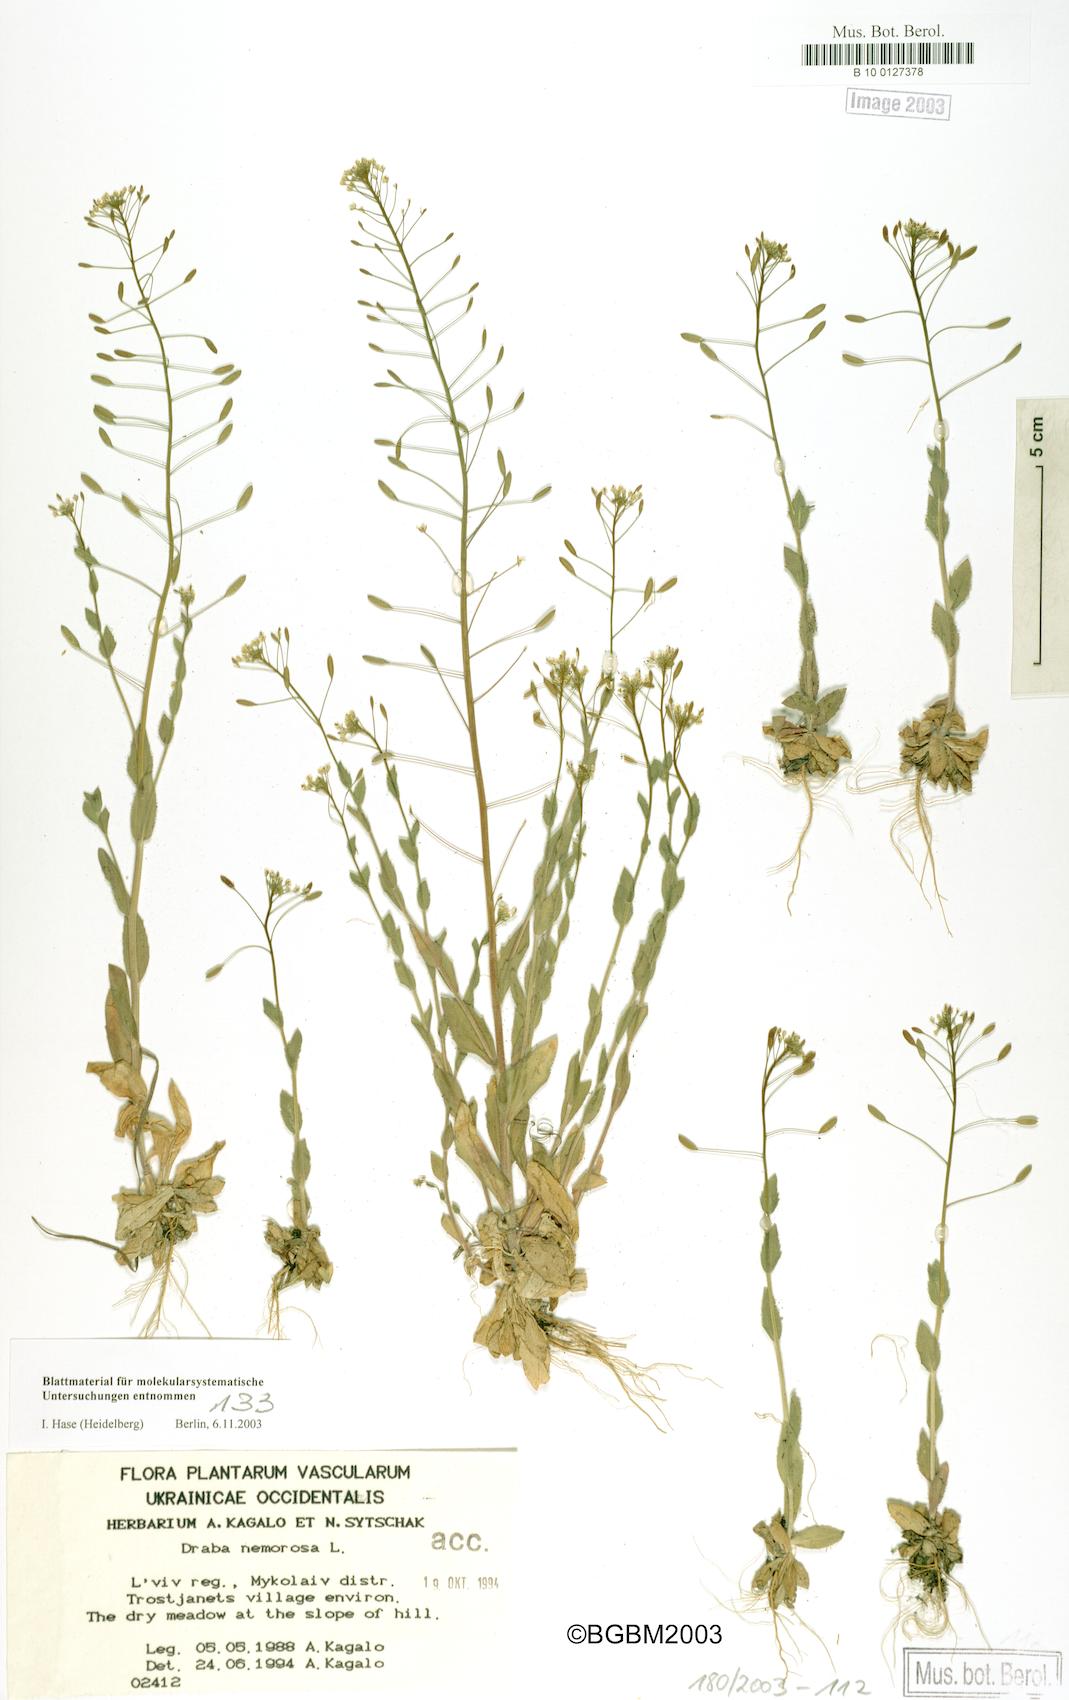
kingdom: Plantae
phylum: Tracheophyta
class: Magnoliopsida
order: Brassicales
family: Brassicaceae
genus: Draba
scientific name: Draba nemorosa
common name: Wood whitlow-grass
